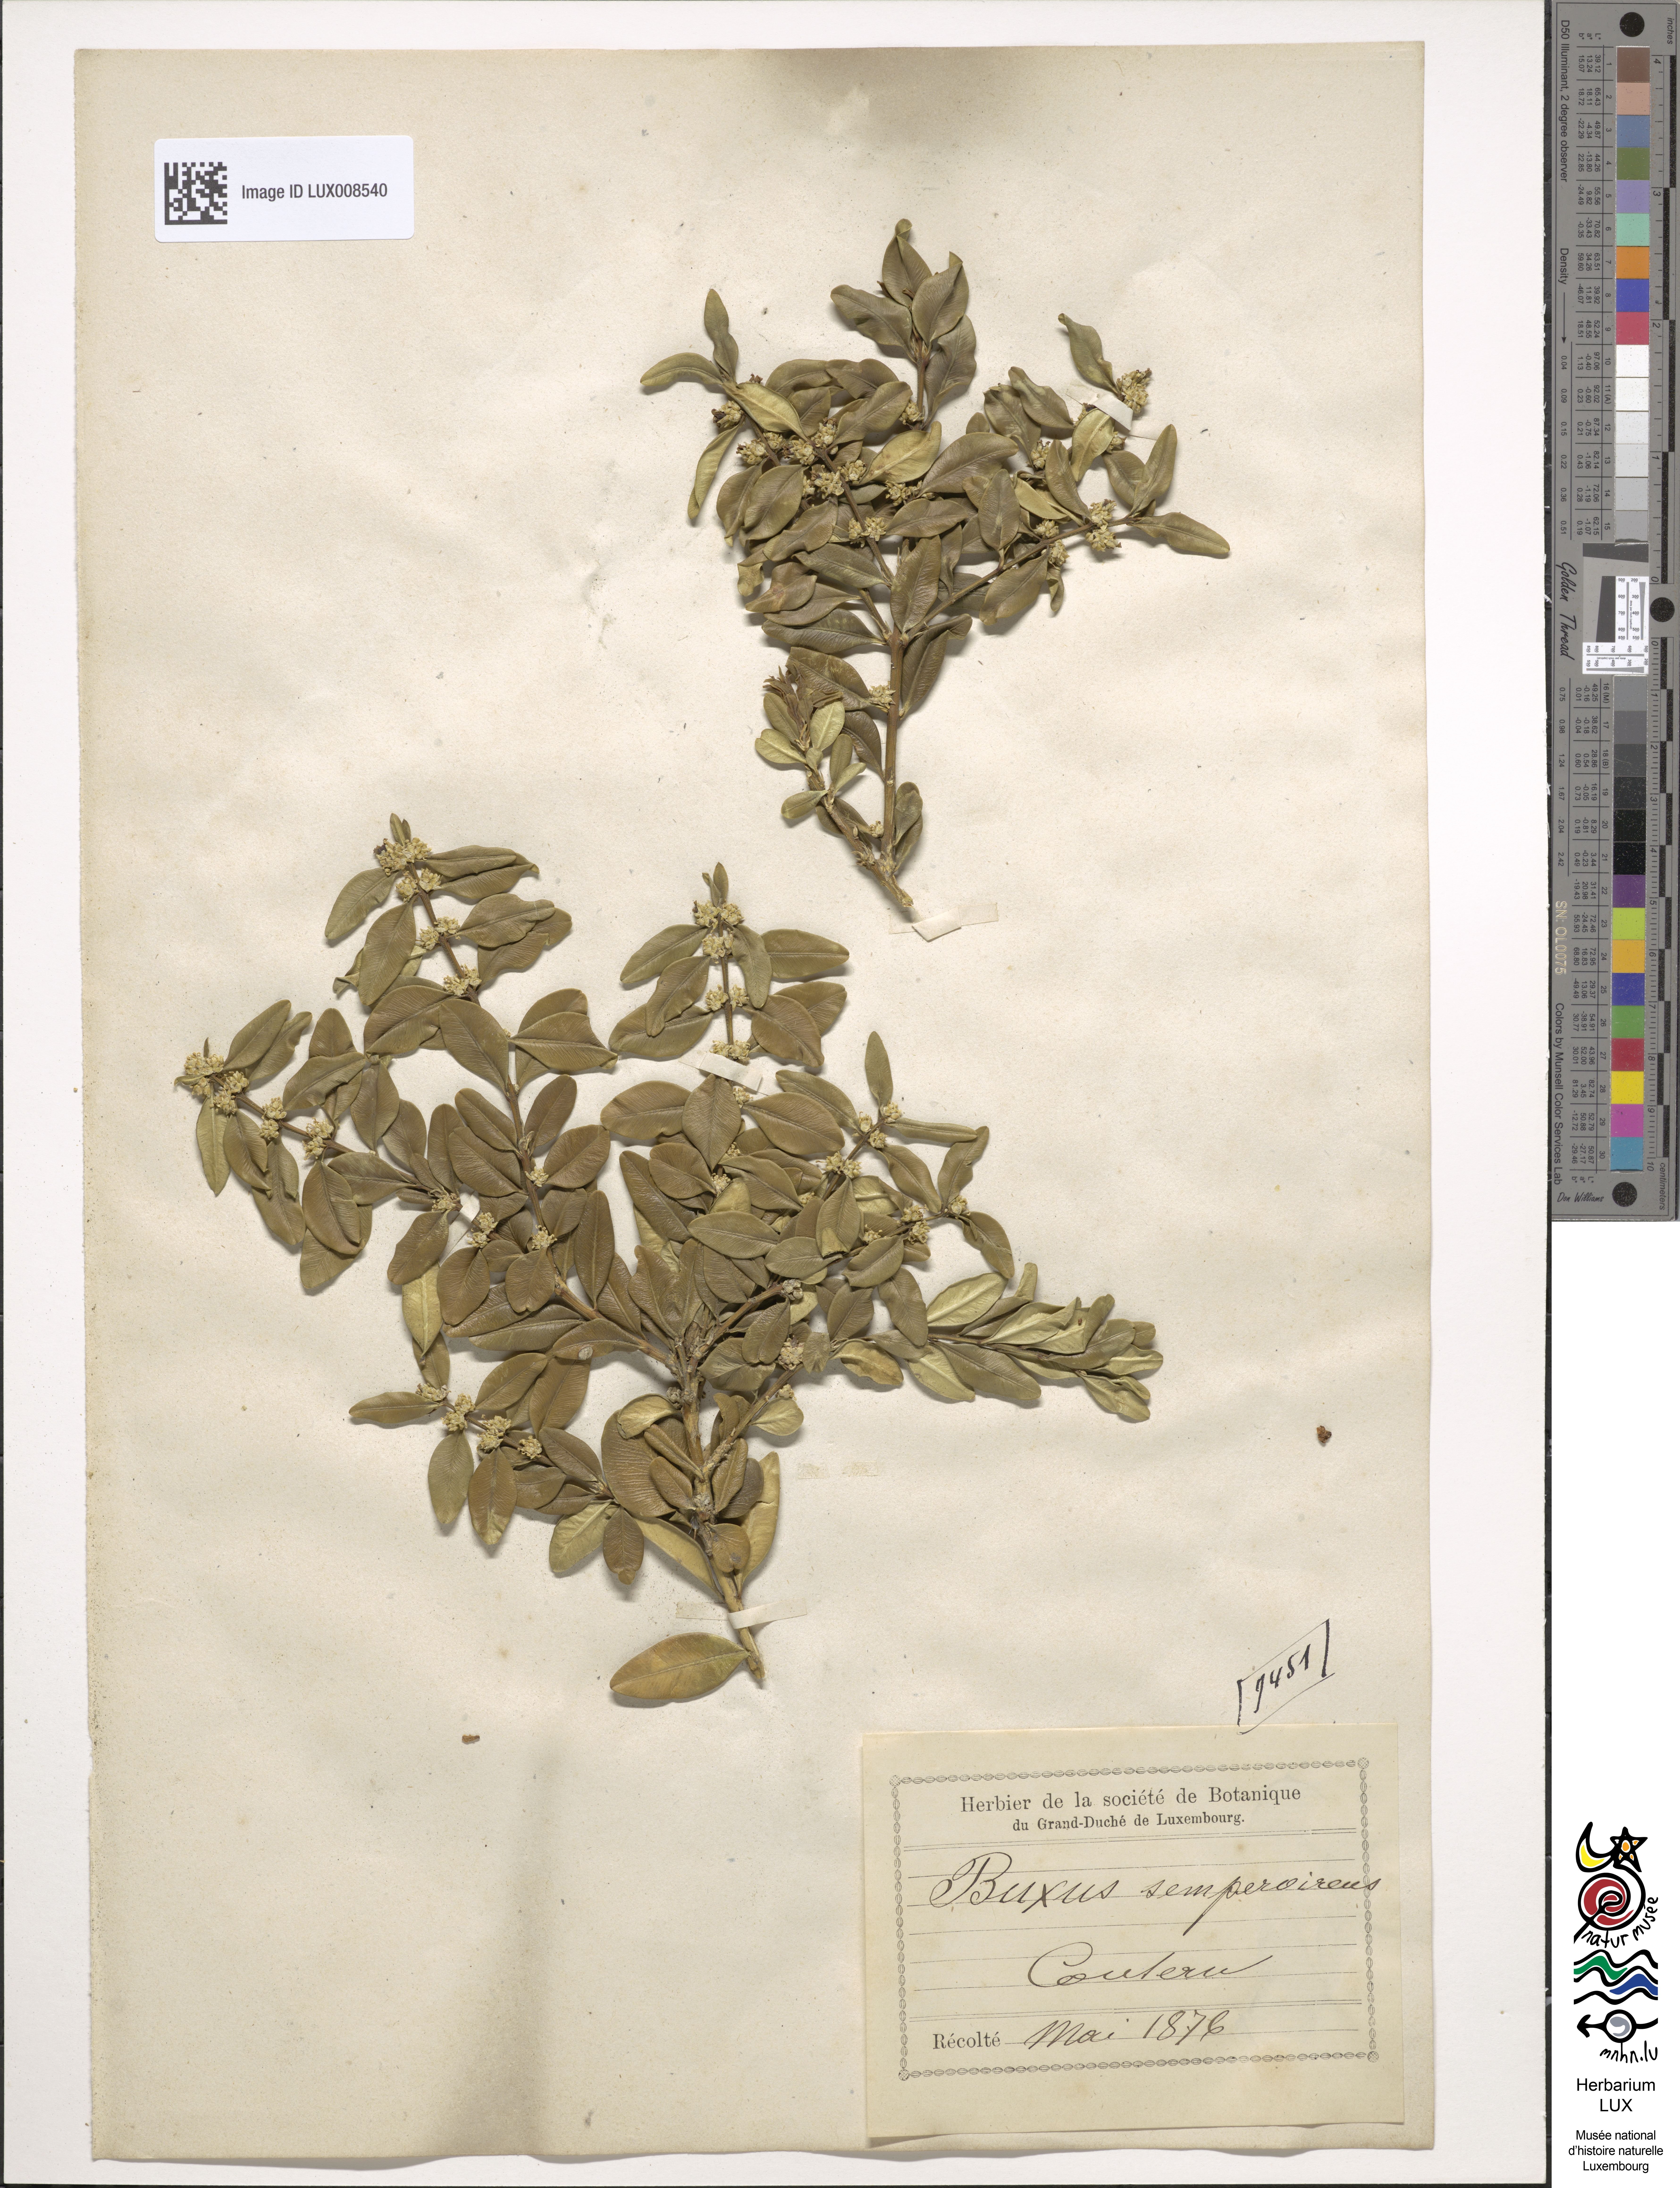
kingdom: Plantae
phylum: Tracheophyta
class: Magnoliopsida
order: Buxales
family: Buxaceae
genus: Buxus
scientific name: Buxus sempervirens
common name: Box
